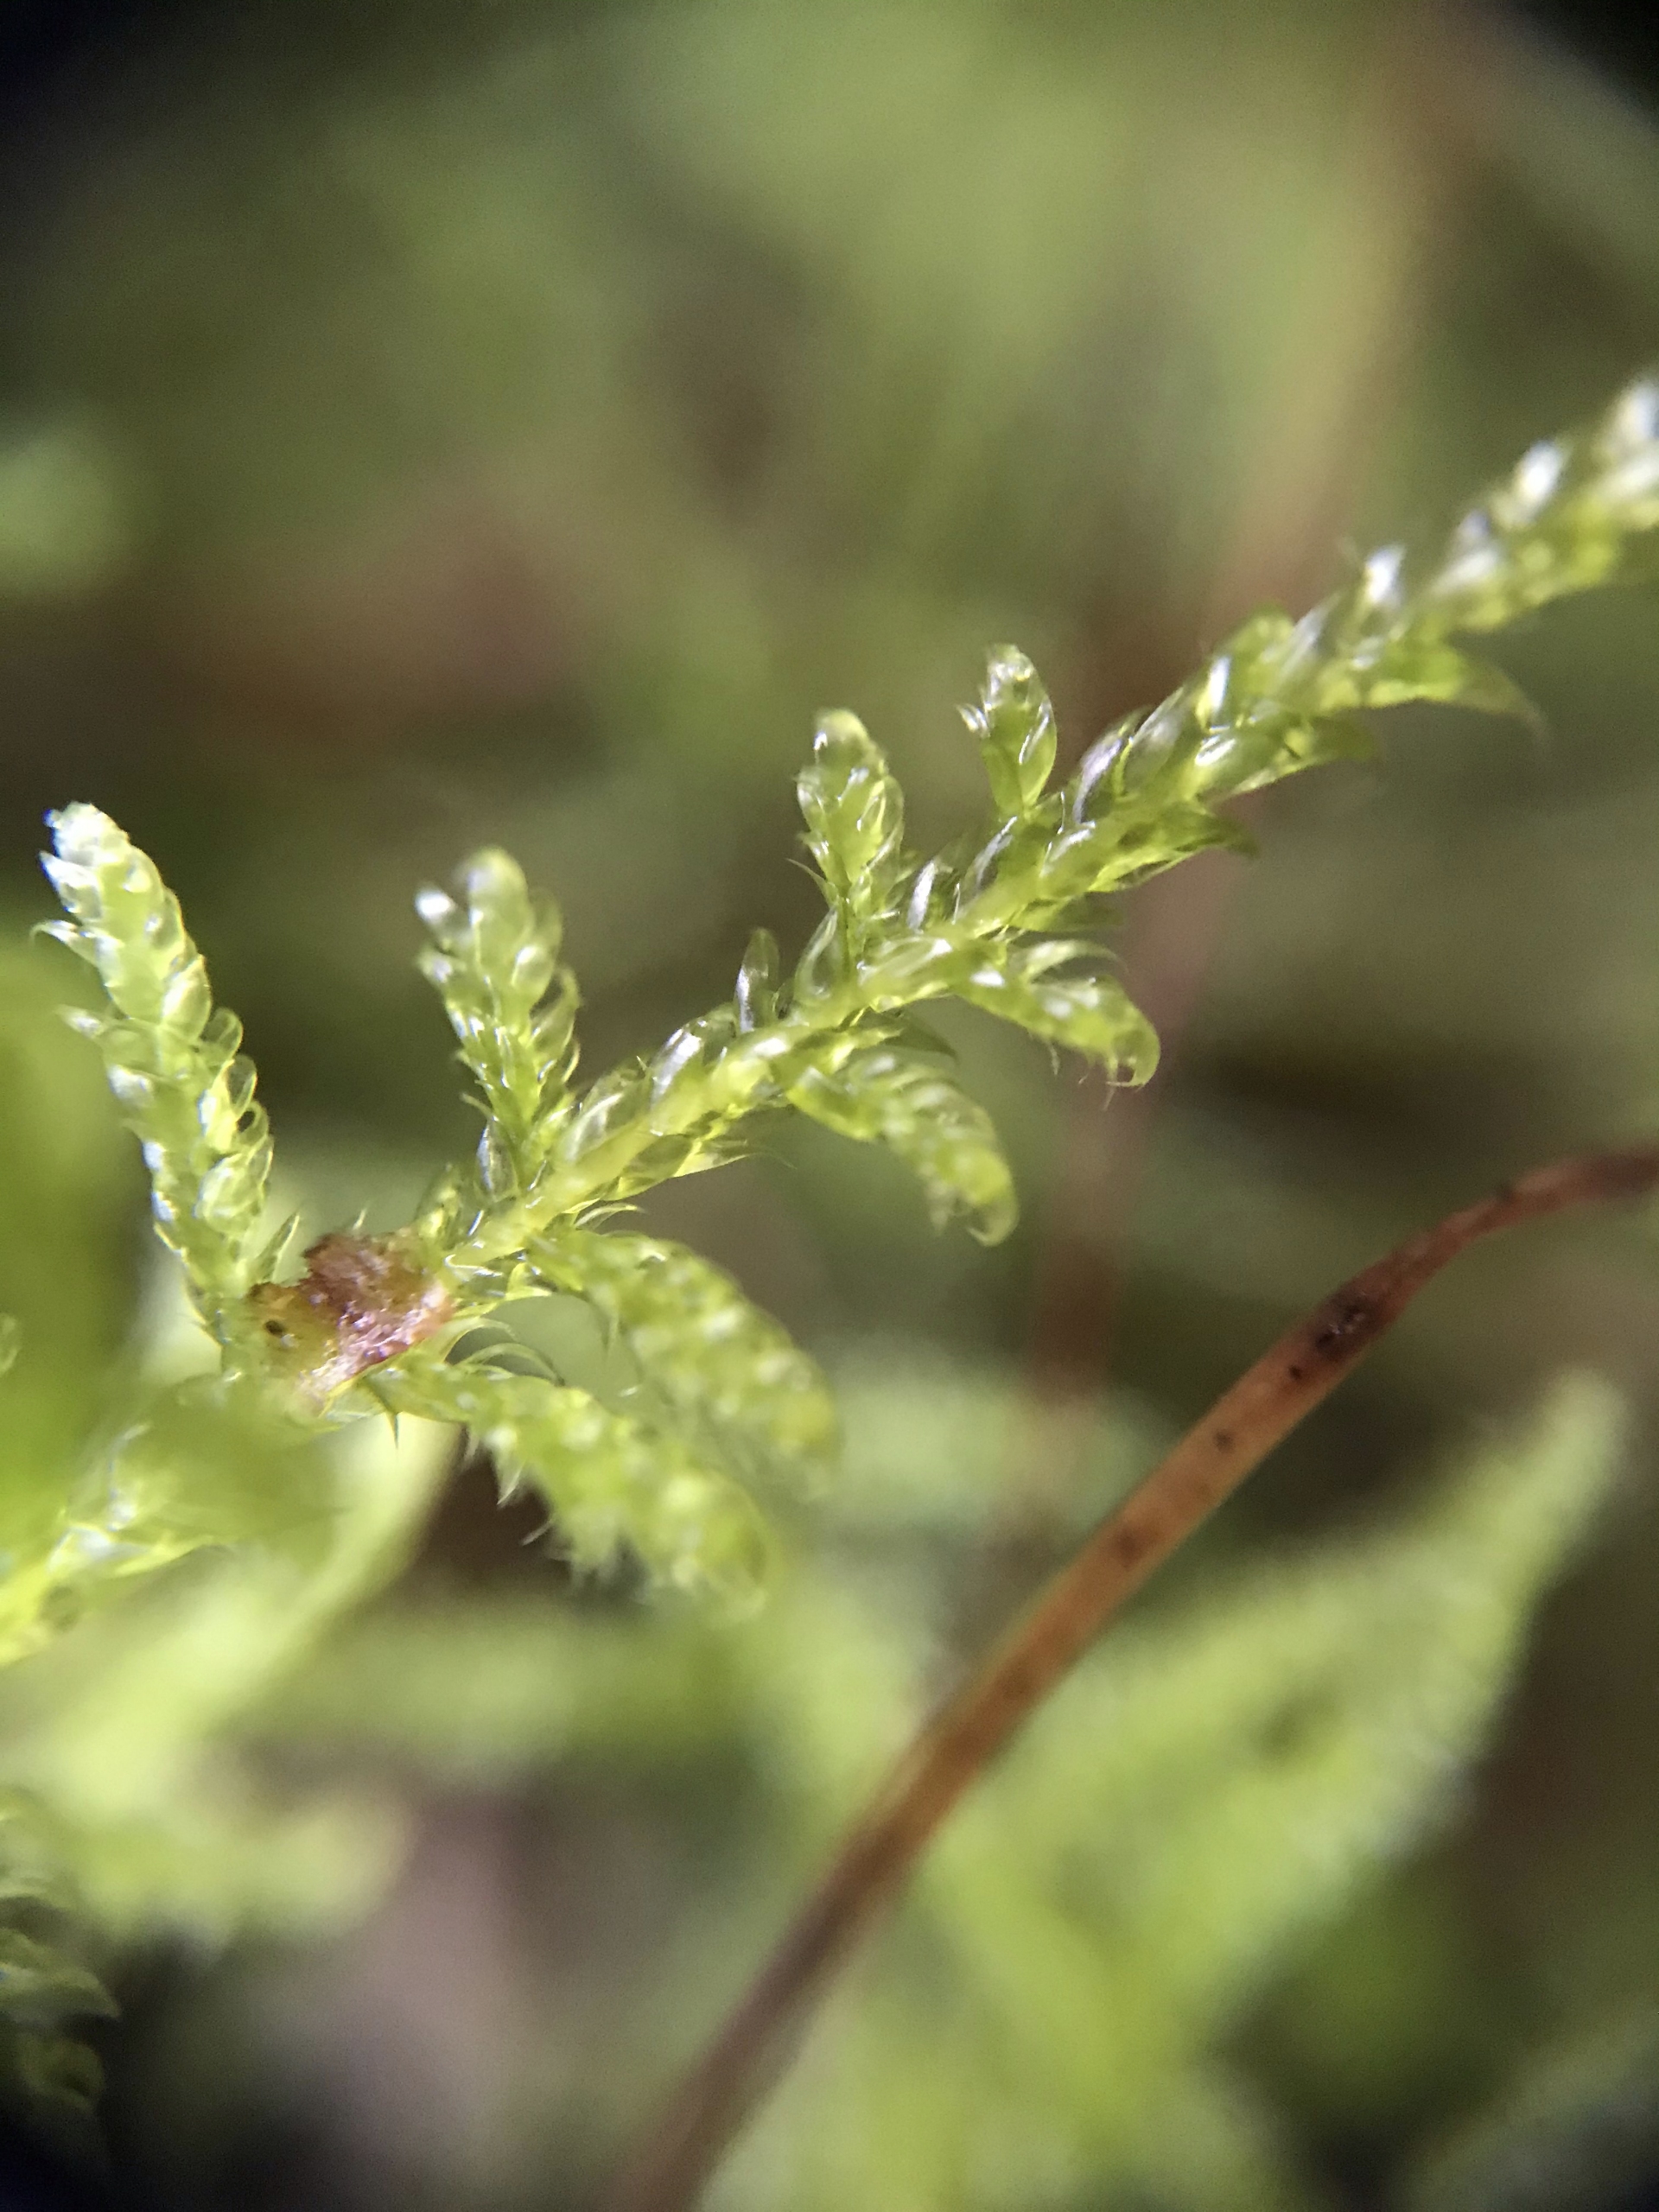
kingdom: Plantae
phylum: Bryophyta
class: Bryopsida
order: Hypnales
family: Hypnaceae
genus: Hypnum
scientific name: Hypnum jutlandicum
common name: Hede-cypresmos
